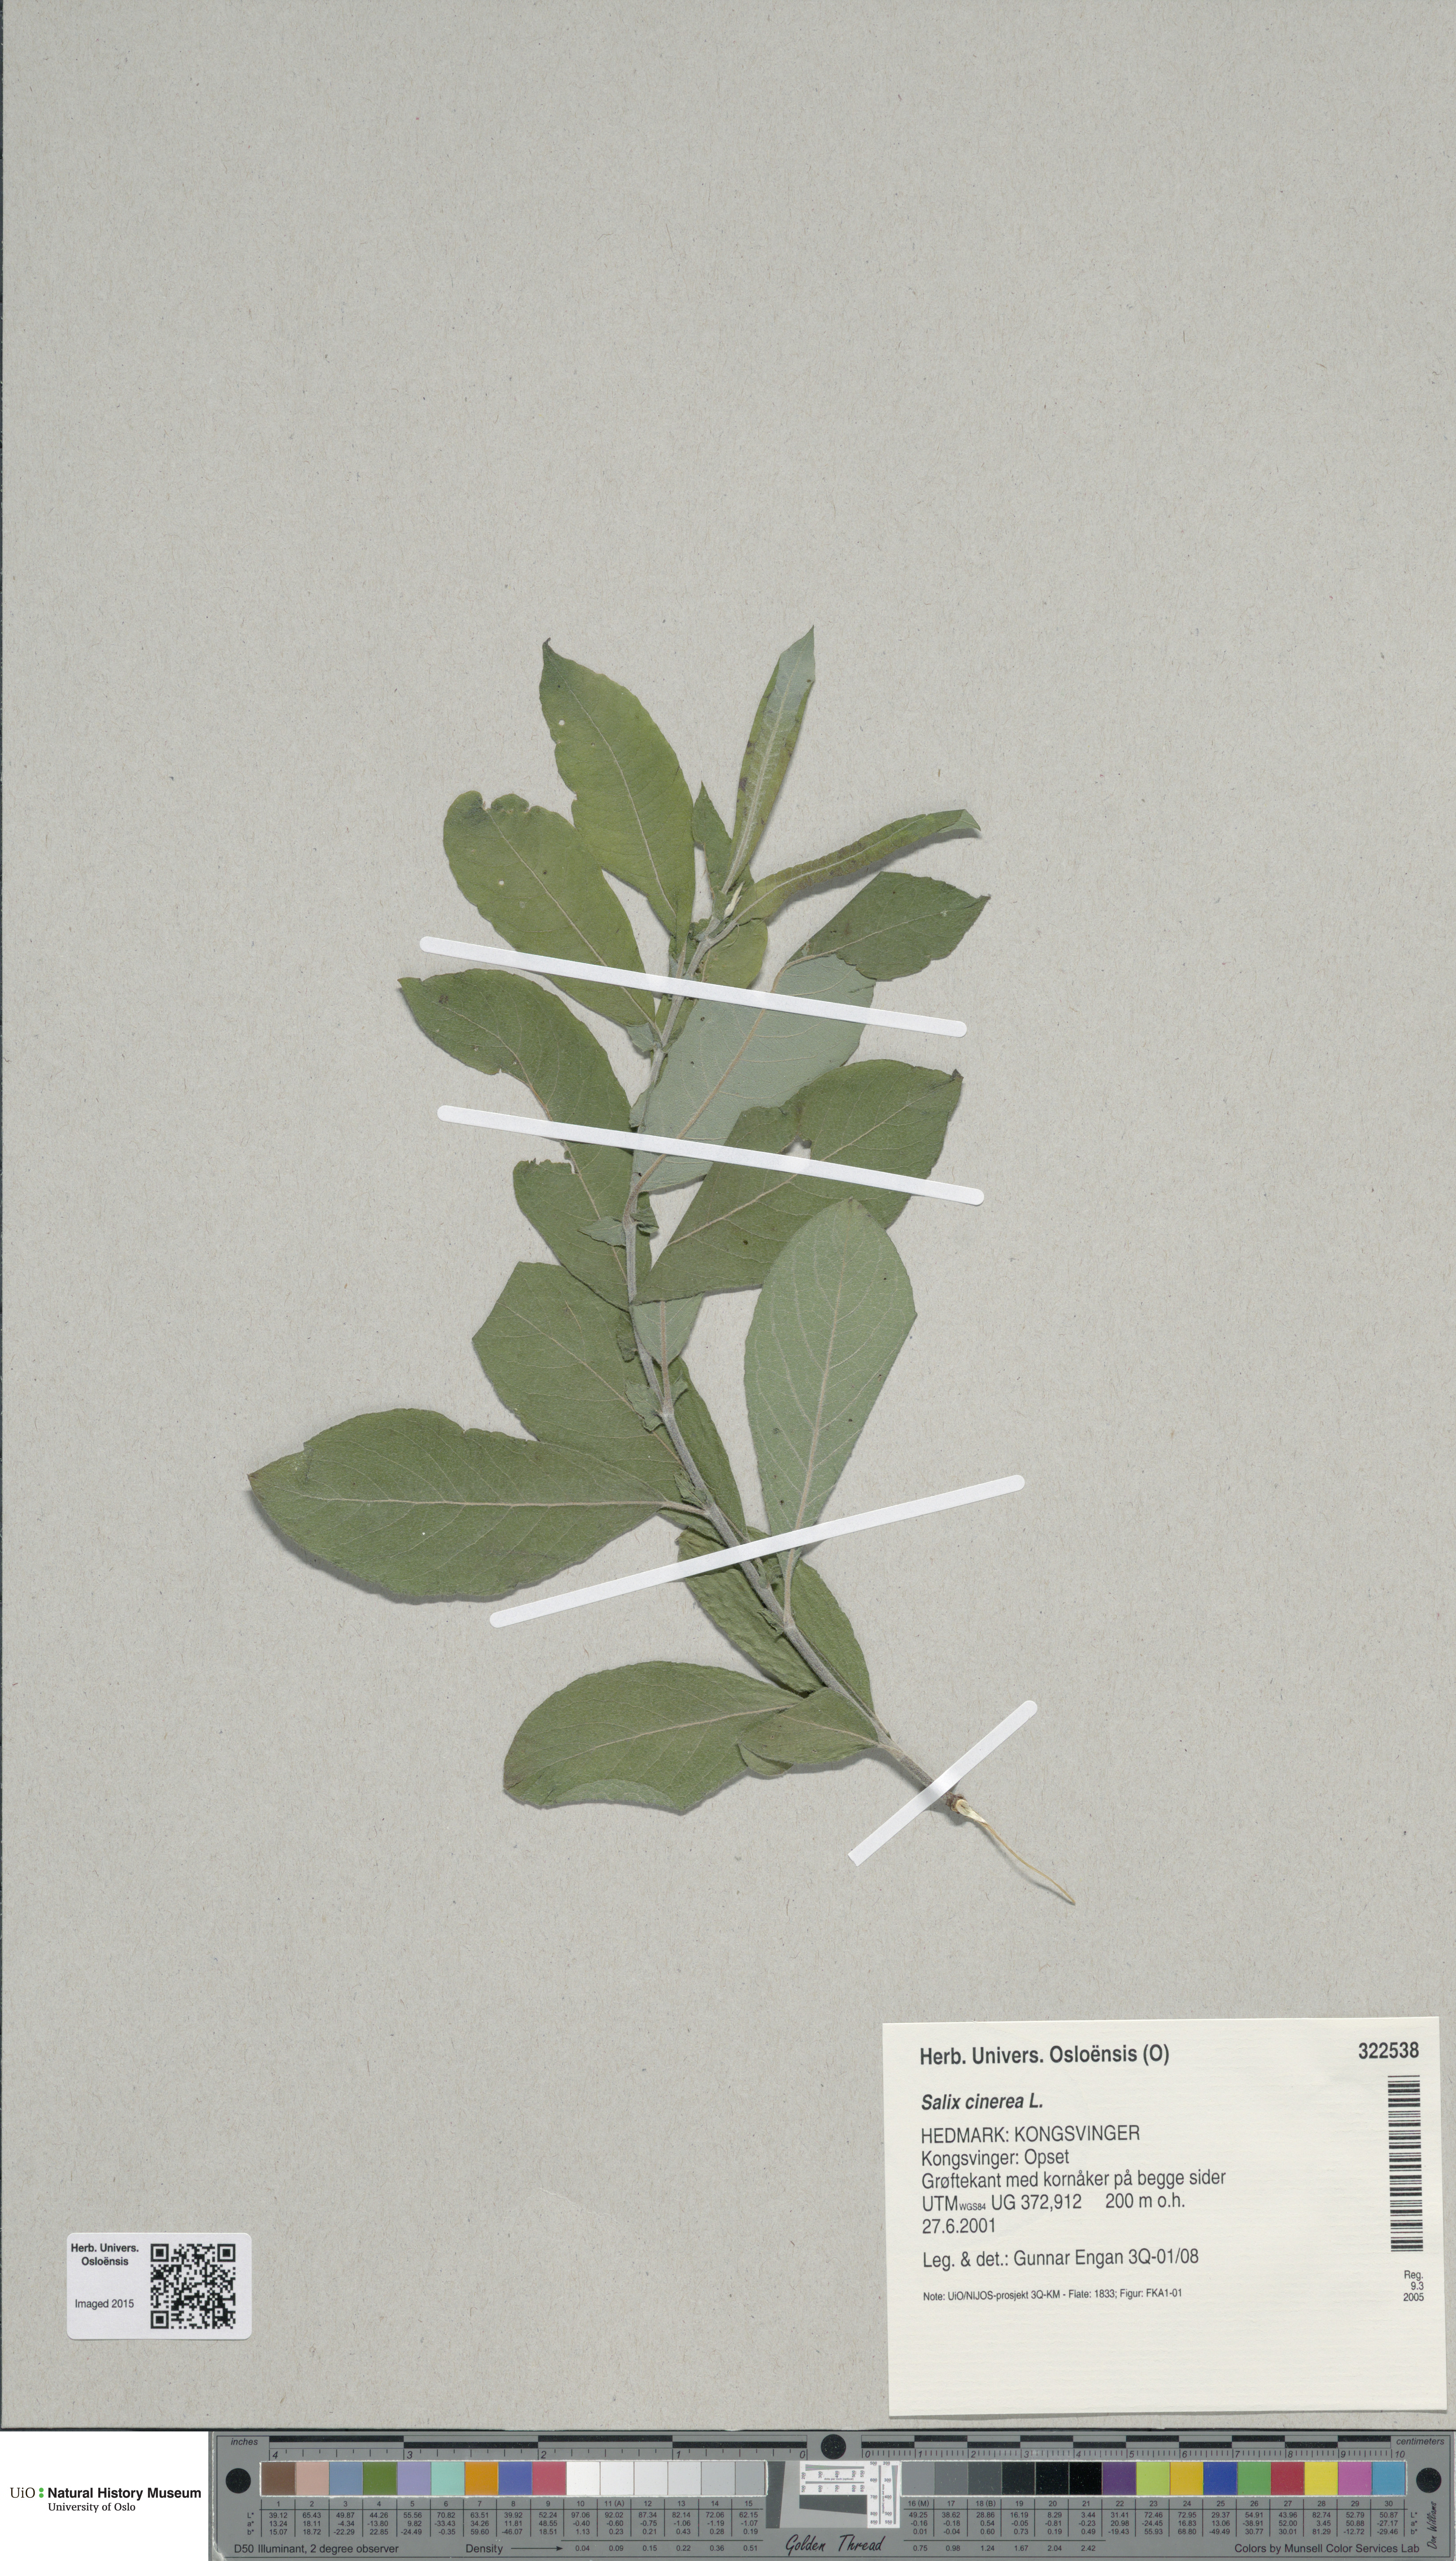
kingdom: Plantae
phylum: Tracheophyta
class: Magnoliopsida
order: Malpighiales
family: Salicaceae
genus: Salix
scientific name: Salix cinerea
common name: Common sallow
